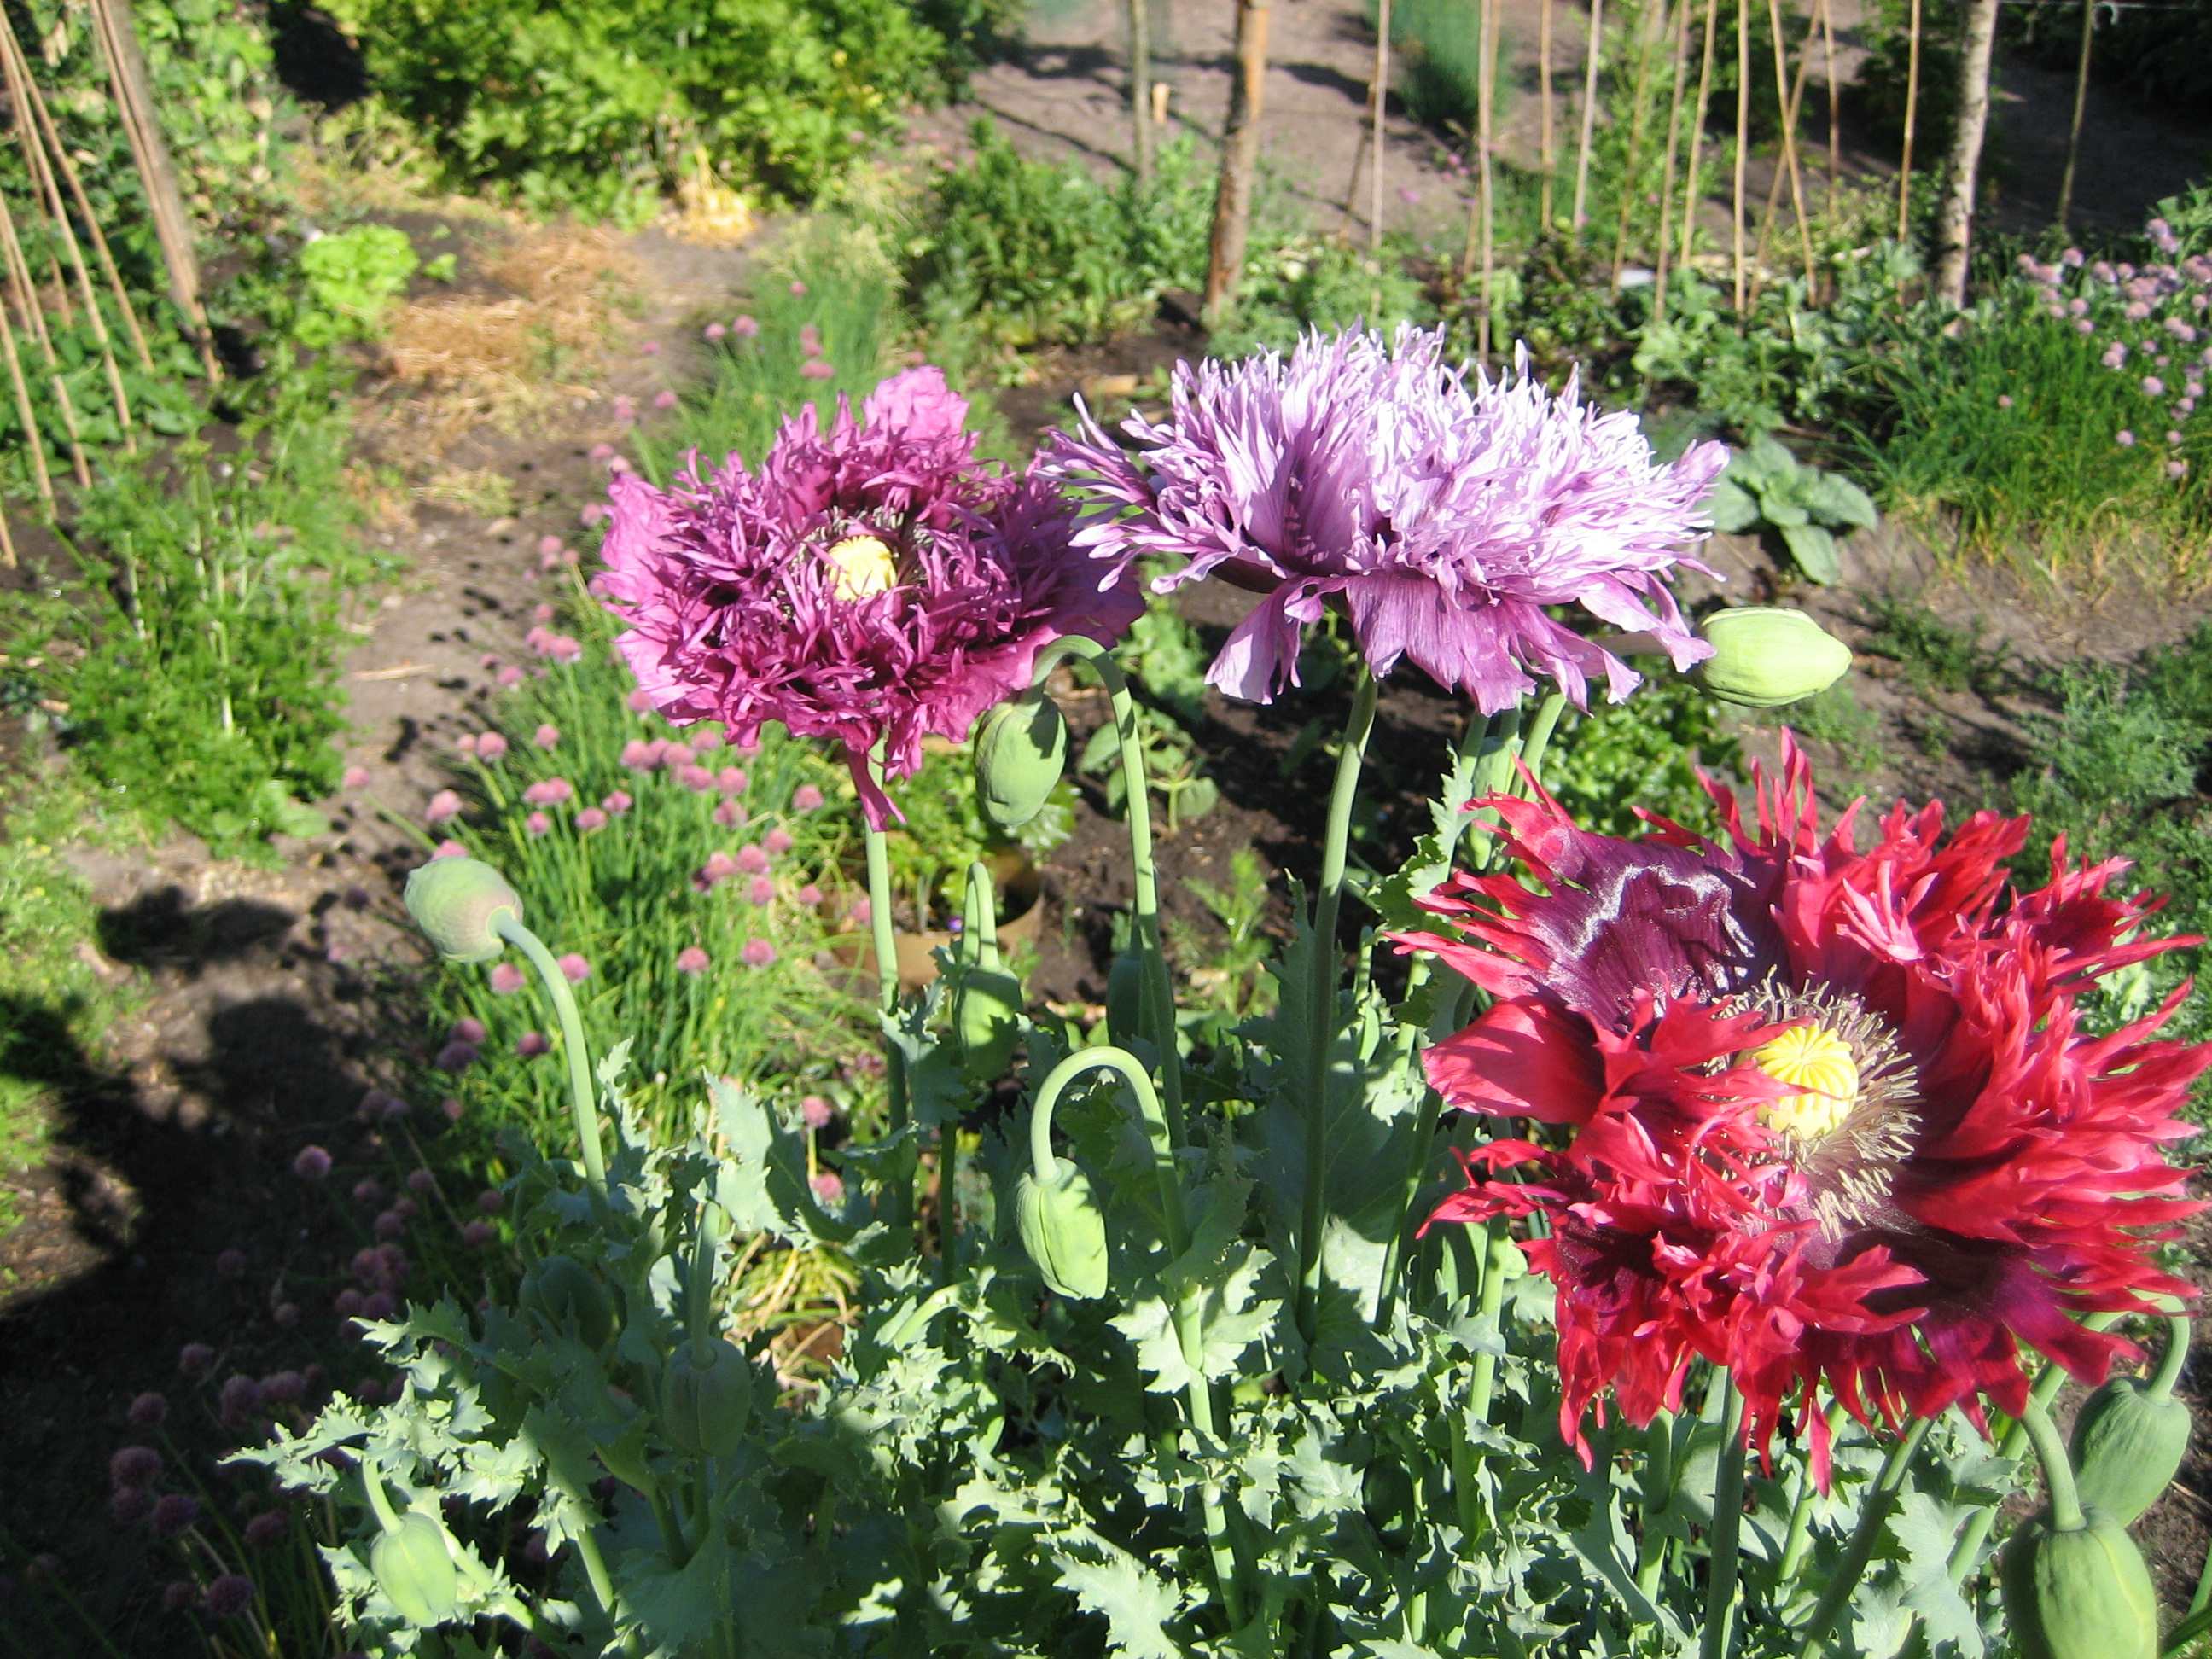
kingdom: Plantae
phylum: Tracheophyta
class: Magnoliopsida
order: Ranunculales
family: Papaveraceae
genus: Papaver
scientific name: Papaver somniferum
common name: Opium poppy
